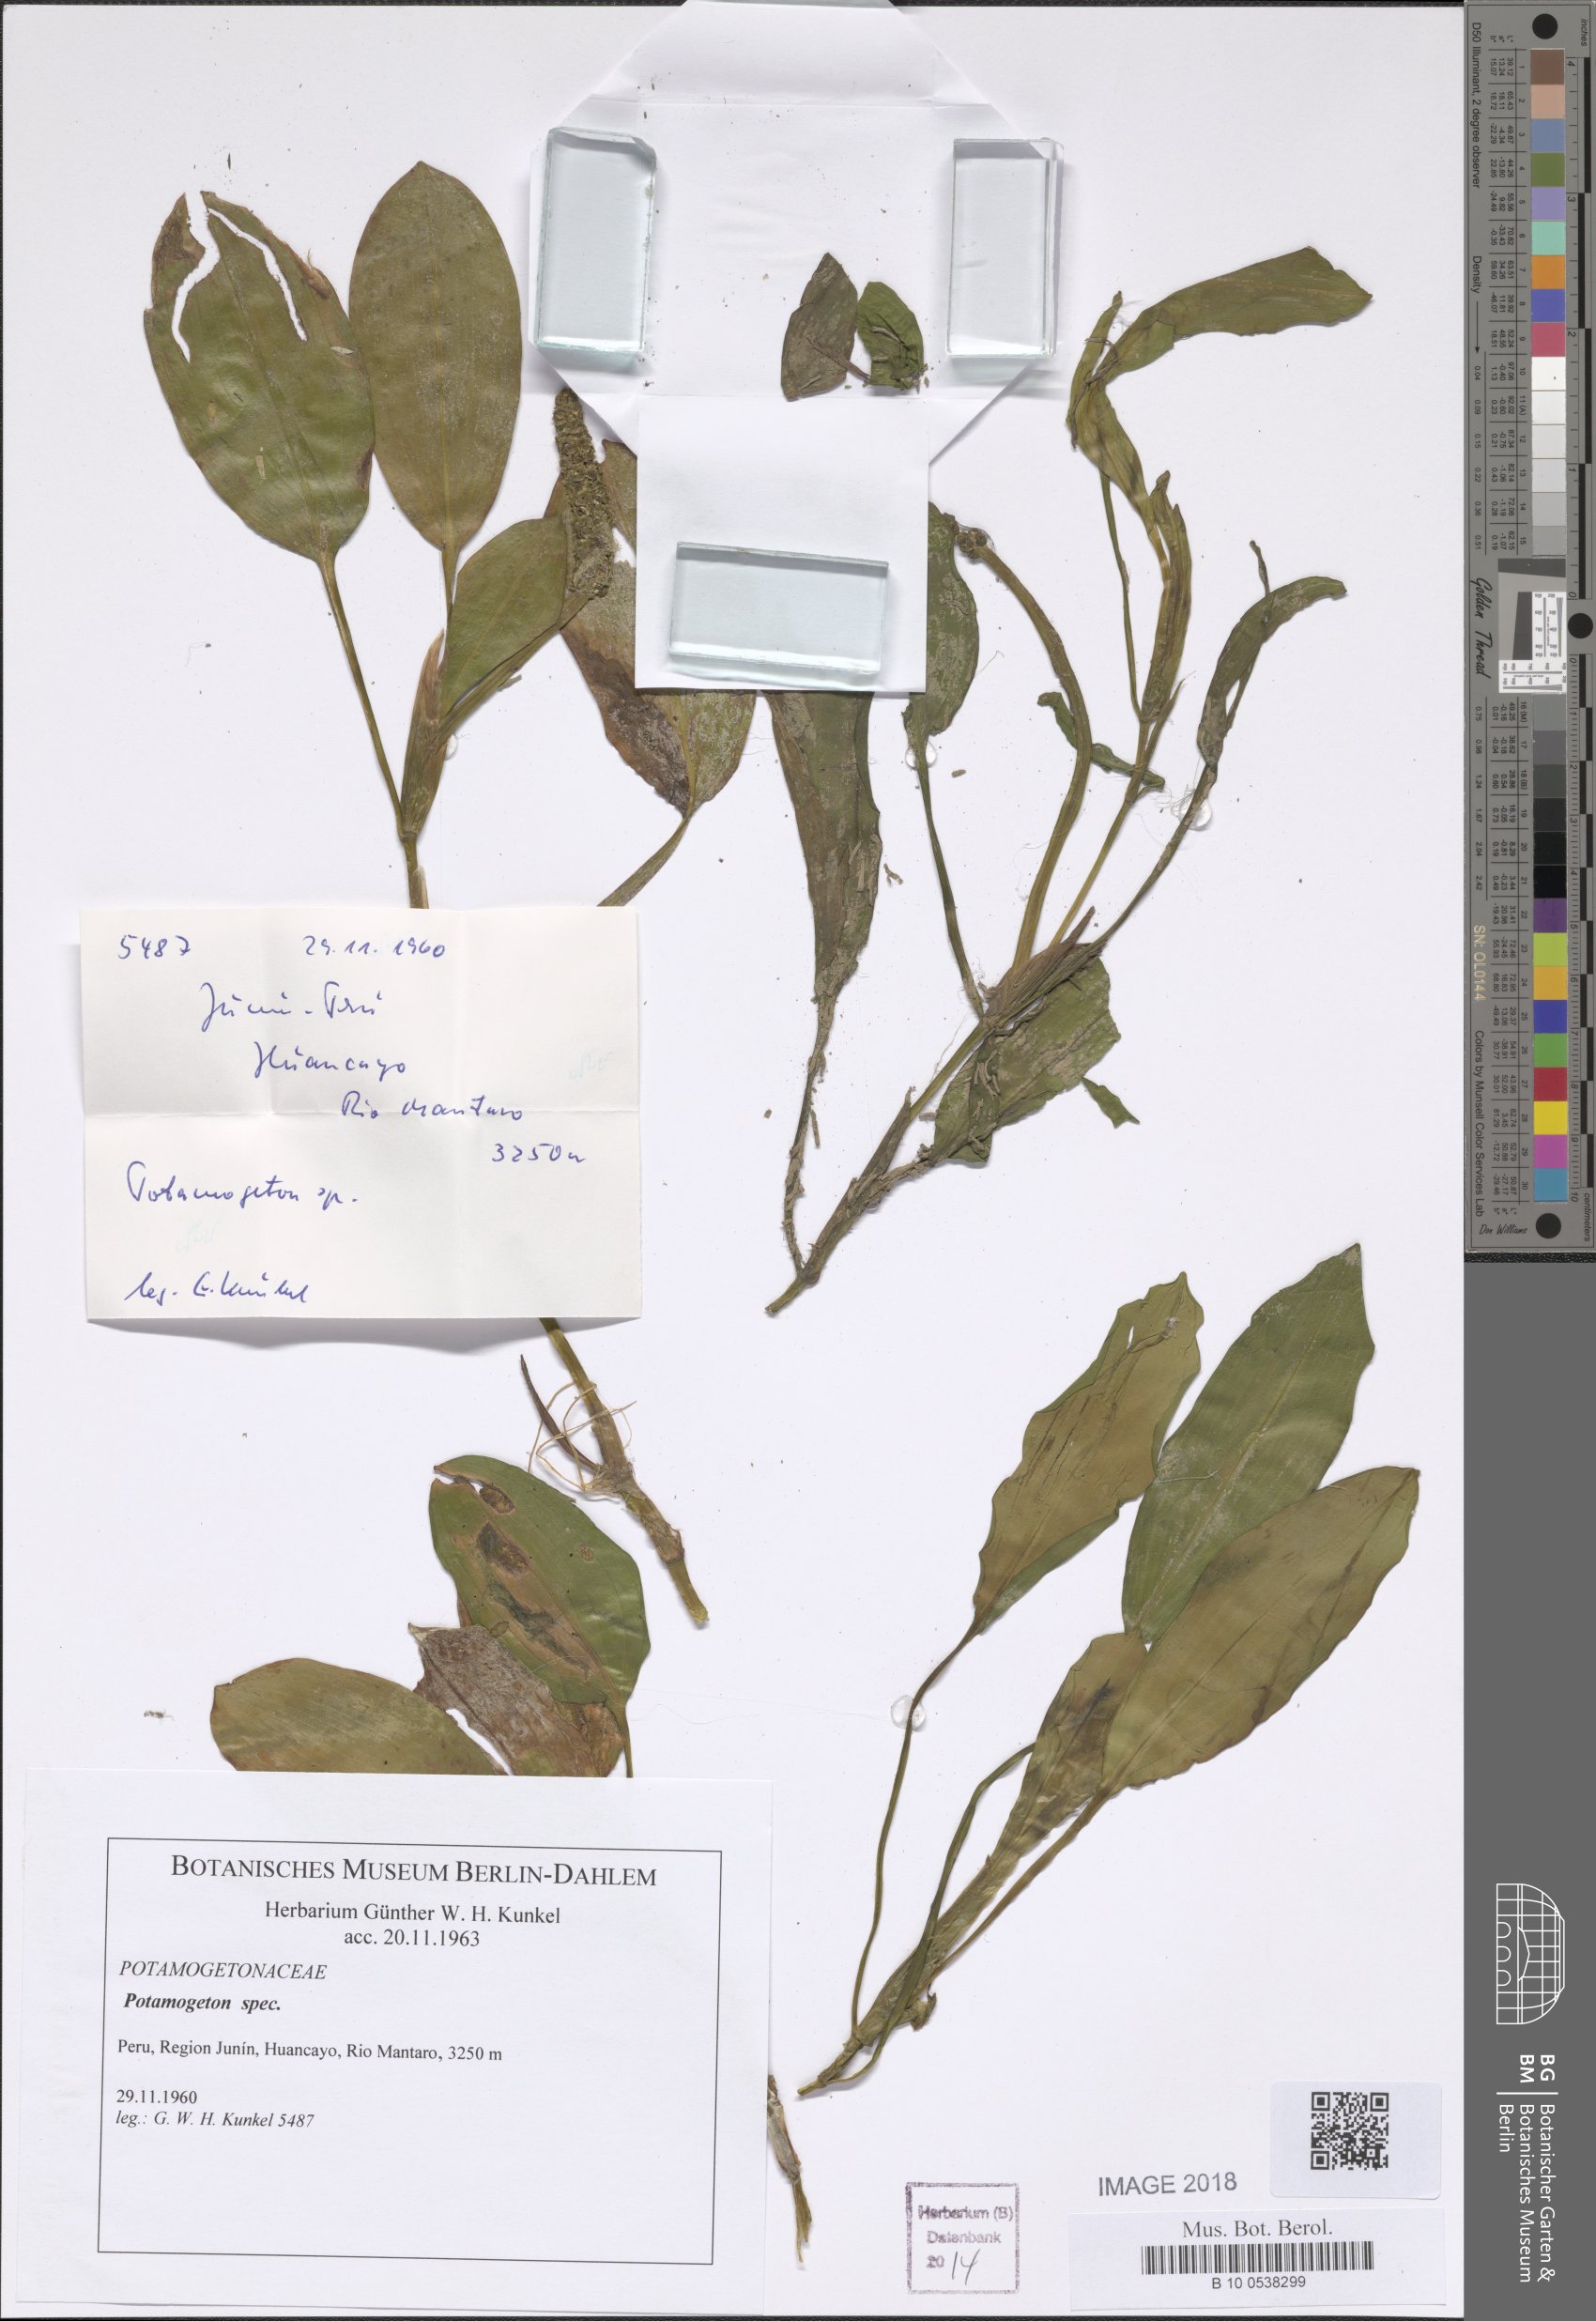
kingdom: Plantae
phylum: Tracheophyta
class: Liliopsida
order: Alismatales
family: Potamogetonaceae
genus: Potamogeton
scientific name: Potamogeton linguatus
